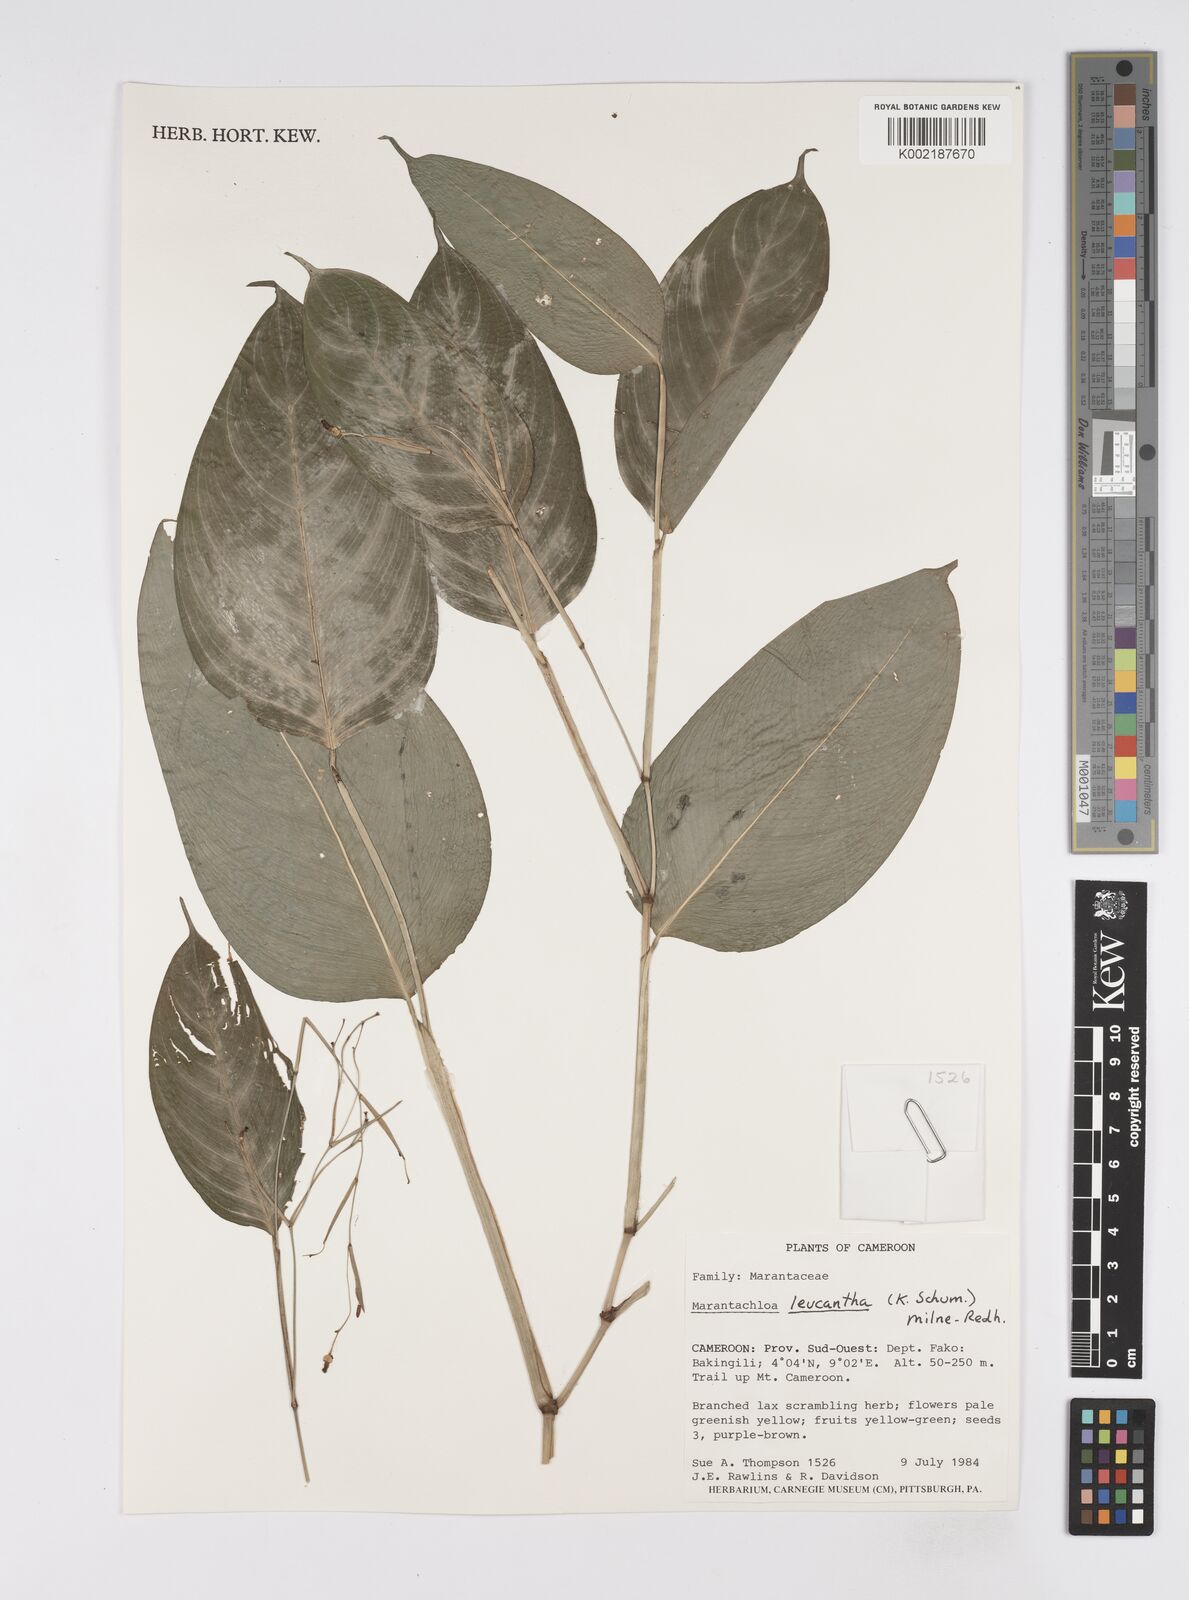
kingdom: Plantae
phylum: Tracheophyta
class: Liliopsida
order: Zingiberales
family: Marantaceae
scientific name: Marantaceae
